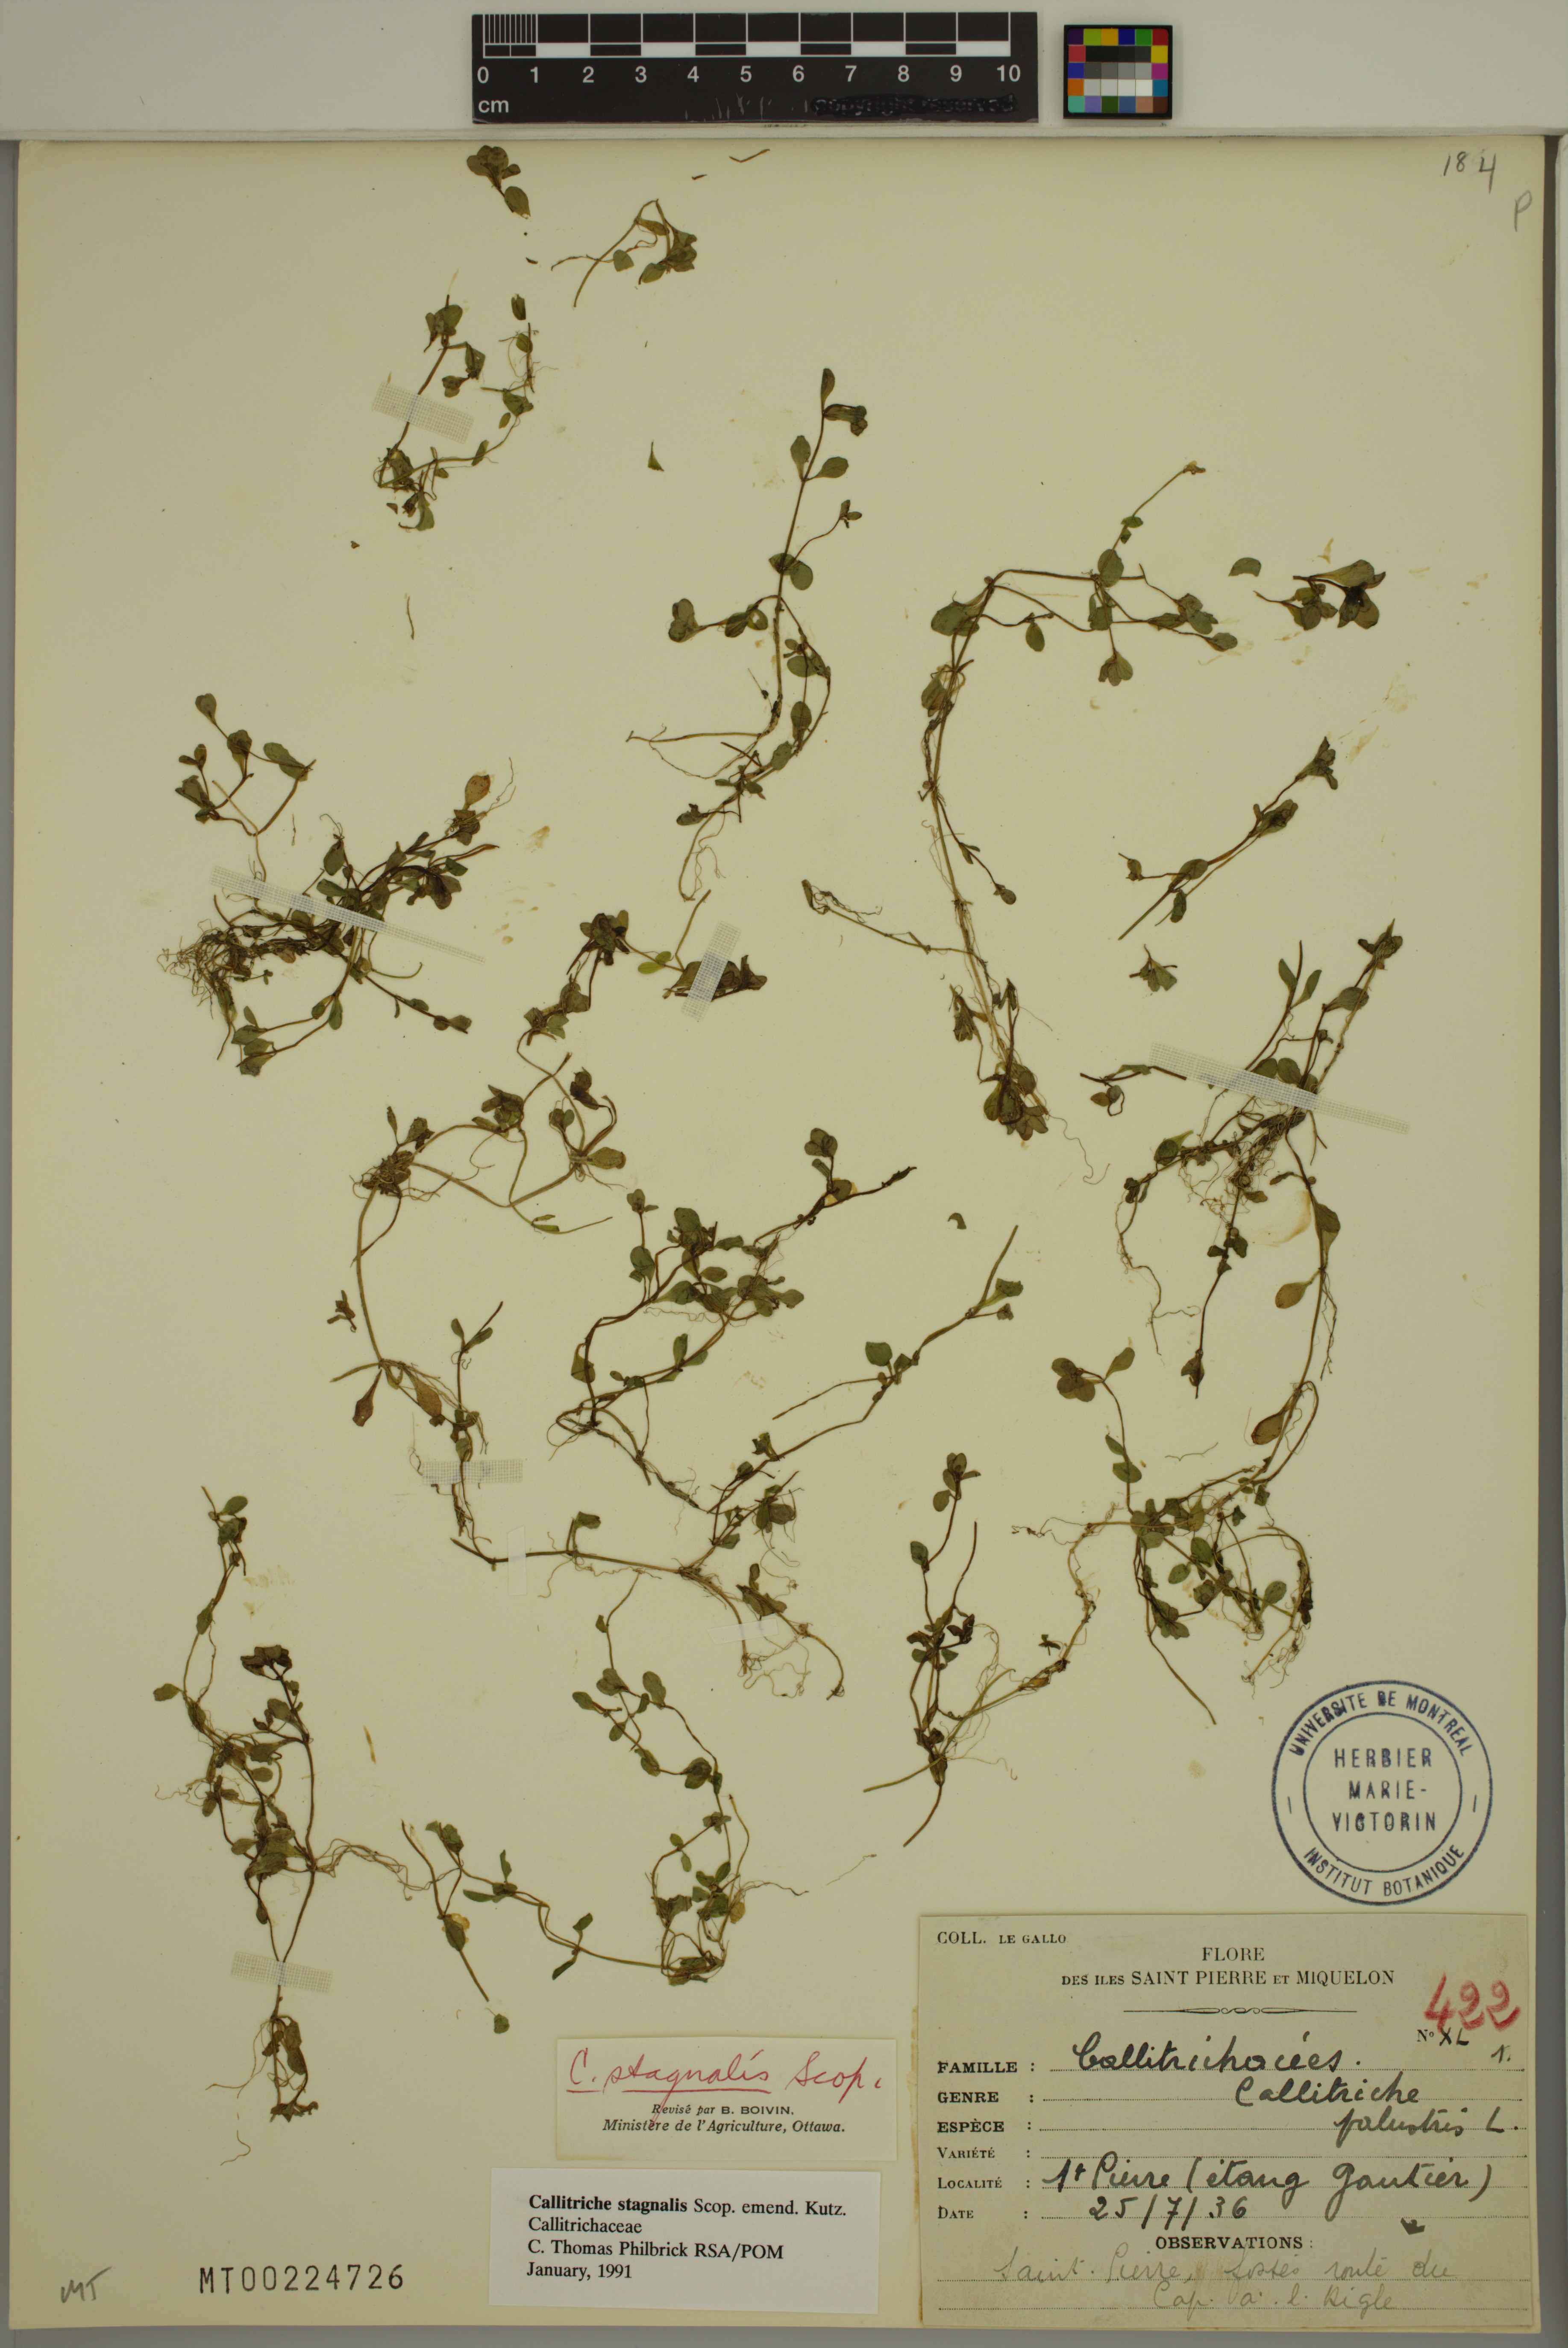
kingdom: Plantae
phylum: Tracheophyta
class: Magnoliopsida
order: Lamiales
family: Plantaginaceae
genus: Callitriche
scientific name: Callitriche stagnalis
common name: Common water-starwort
